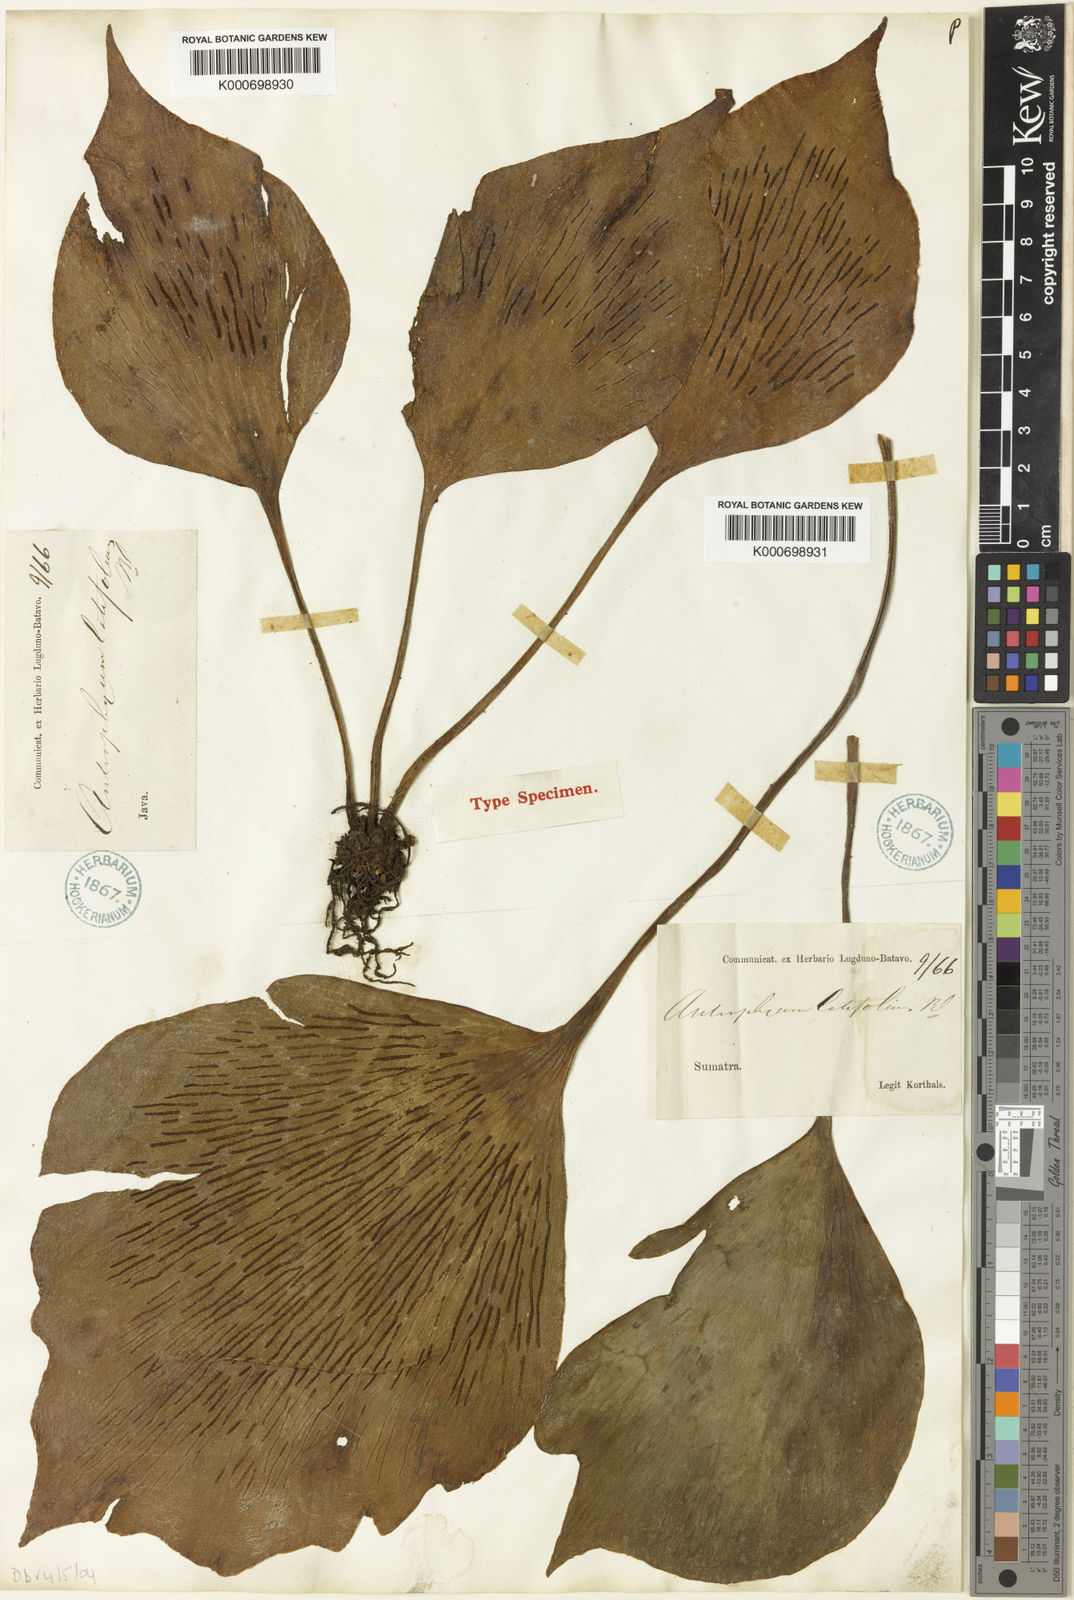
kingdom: Plantae
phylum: Tracheophyta
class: Polypodiopsida
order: Polypodiales
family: Pteridaceae
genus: Antrophyum
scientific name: Antrophyum latifolium
